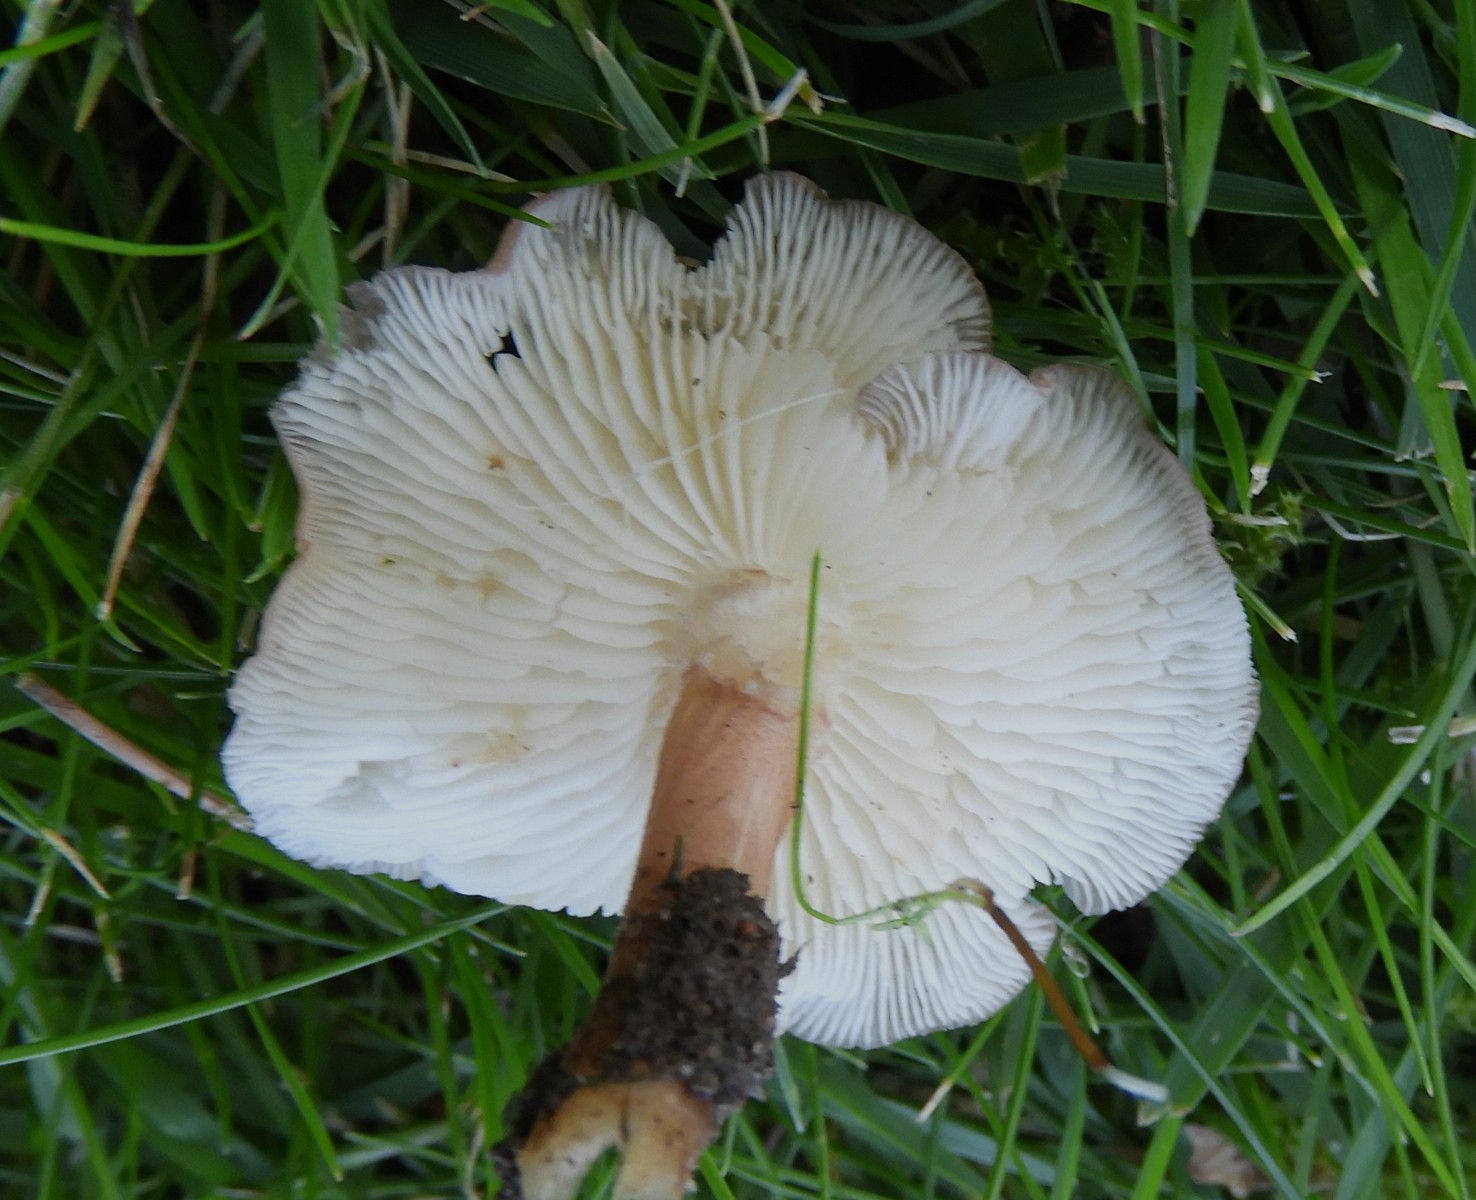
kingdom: Fungi
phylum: Basidiomycota
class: Agaricomycetes
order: Agaricales
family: Lyophyllaceae
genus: Calocybe
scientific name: Calocybe carnea
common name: rosa fagerhat
